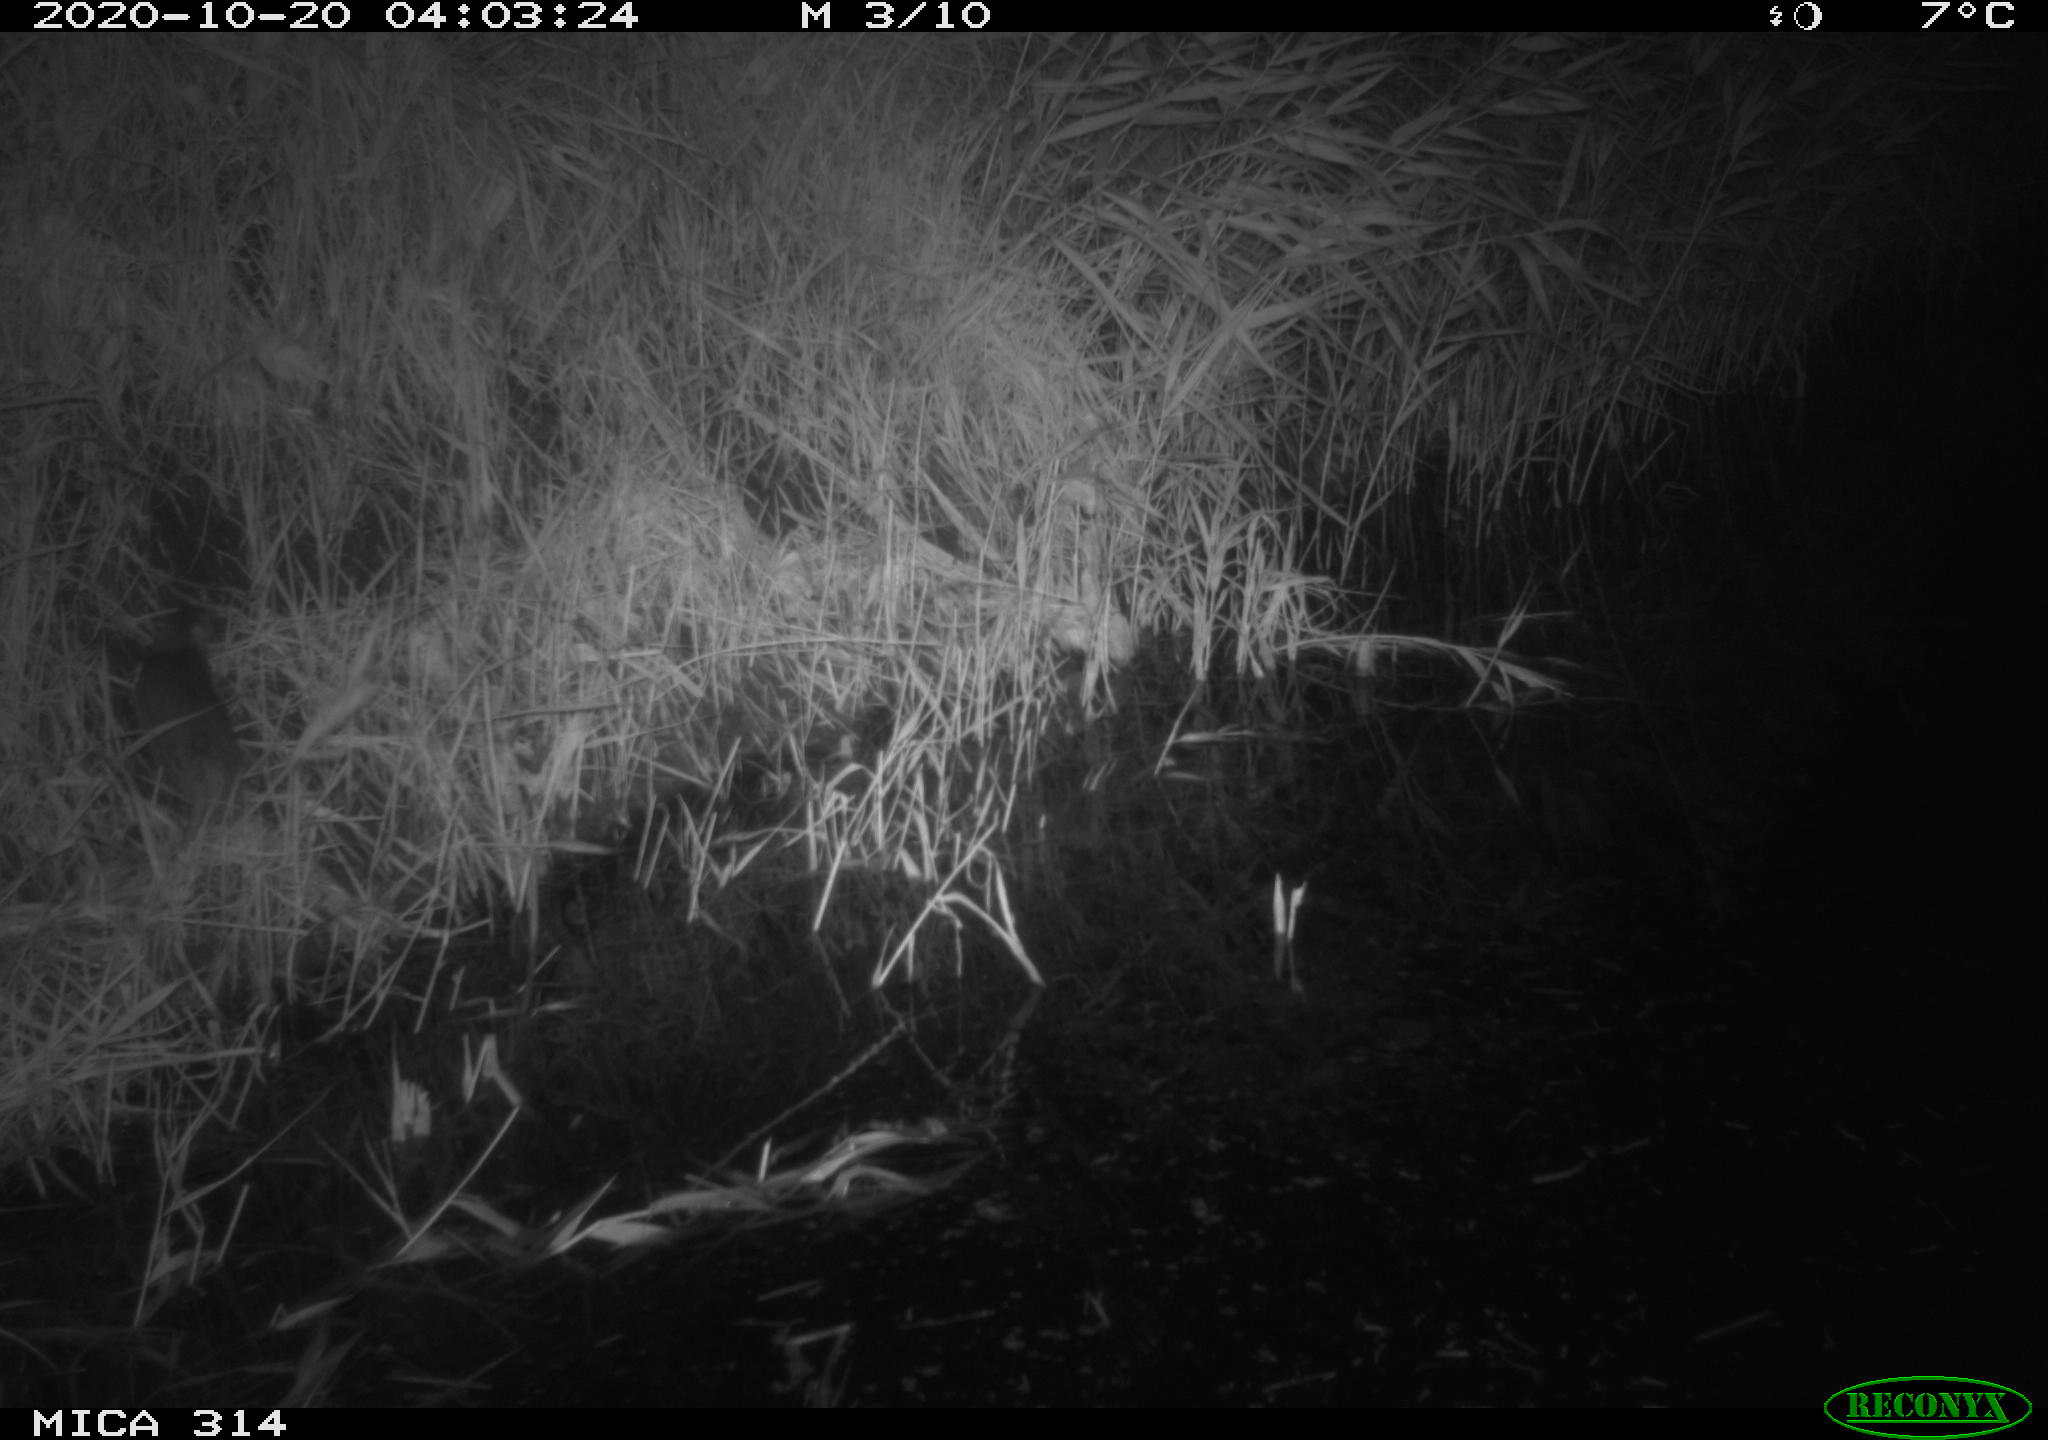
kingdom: Animalia
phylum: Chordata
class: Mammalia
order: Rodentia
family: Muridae
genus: Rattus
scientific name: Rattus norvegicus
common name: Brown rat
